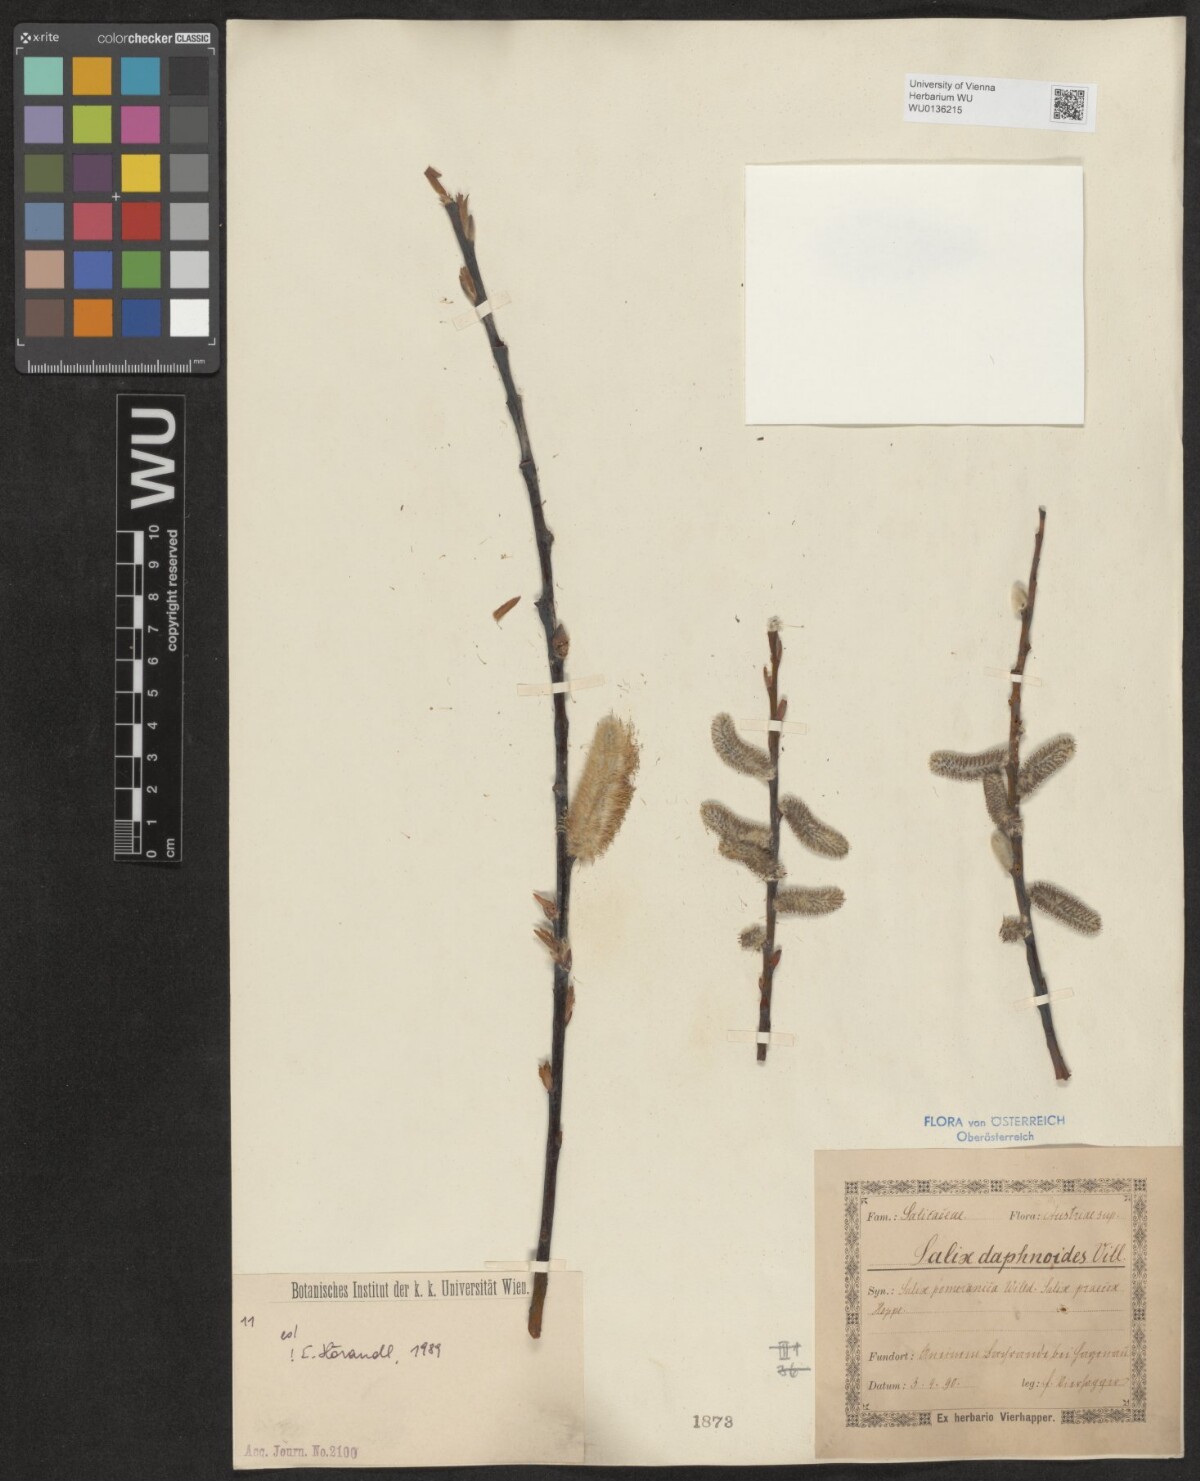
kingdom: Plantae
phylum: Tracheophyta
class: Magnoliopsida
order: Malpighiales
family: Salicaceae
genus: Salix
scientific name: Salix daphnoides
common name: European violet-willow
